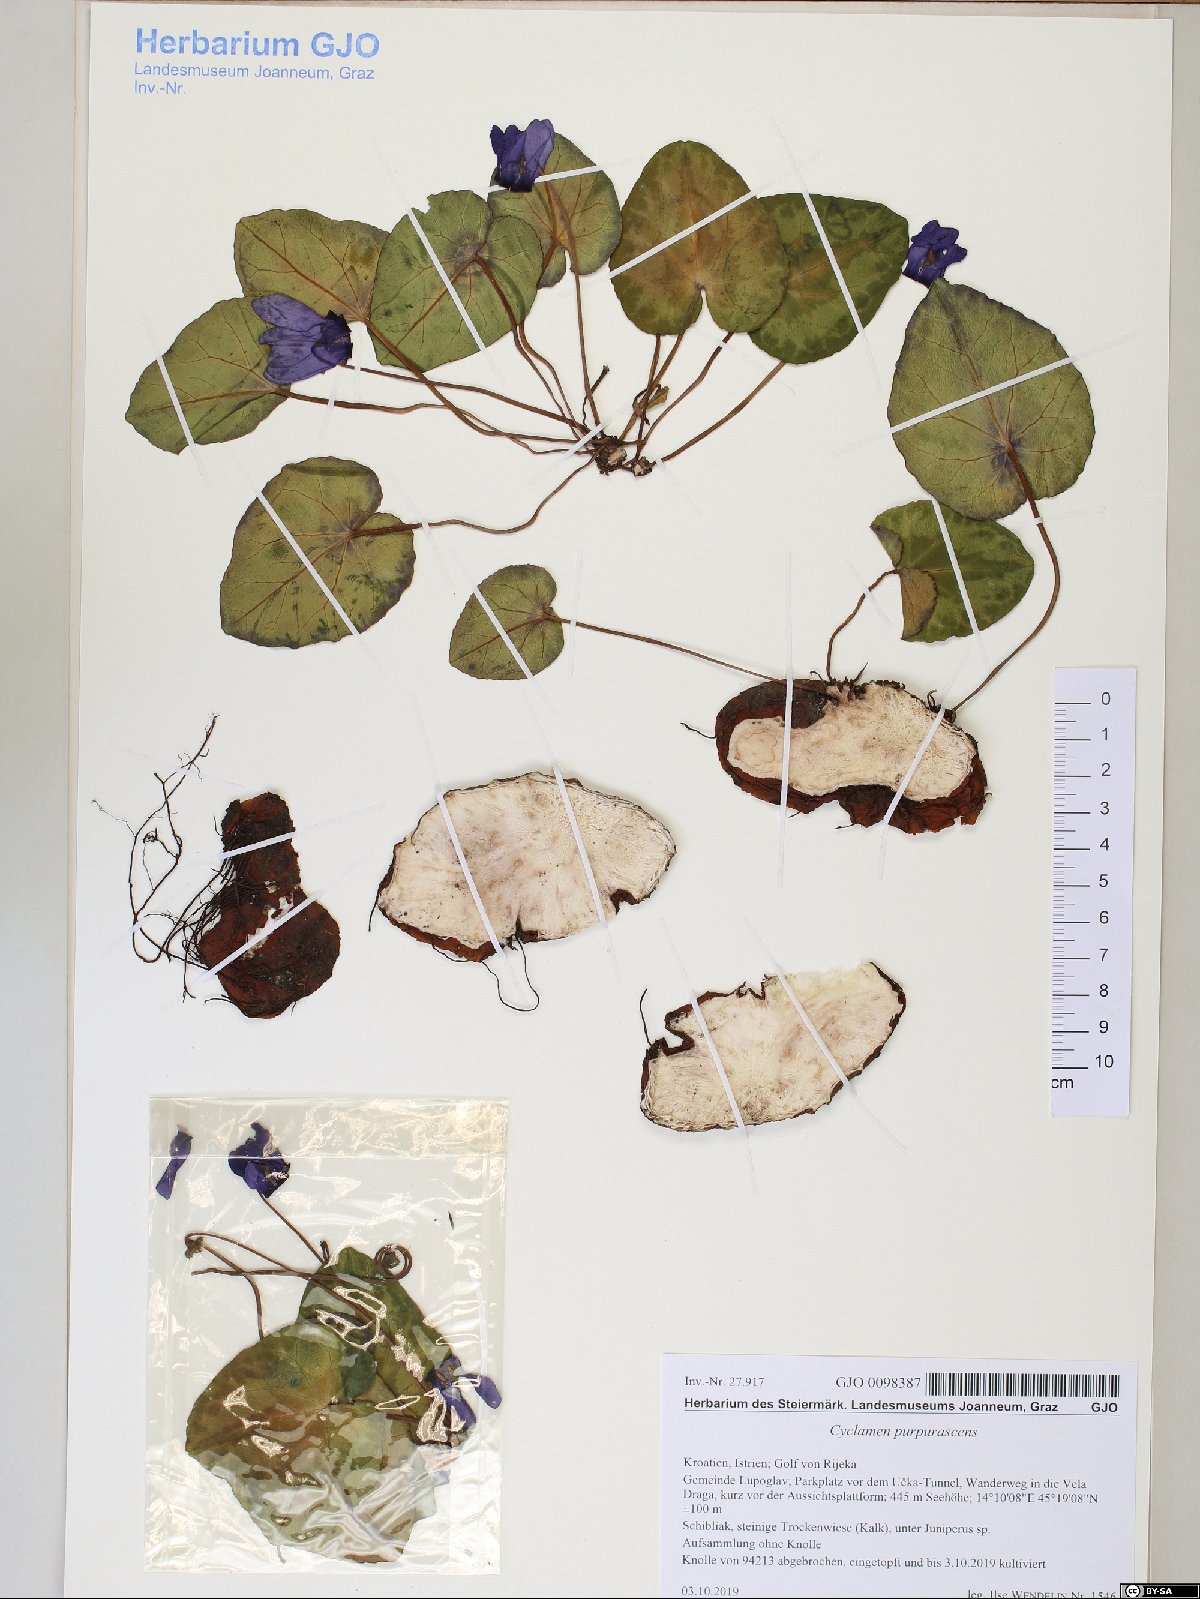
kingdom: Plantae
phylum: Tracheophyta
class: Magnoliopsida
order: Ericales
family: Primulaceae
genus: Cyclamen
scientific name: Cyclamen purpurascens
